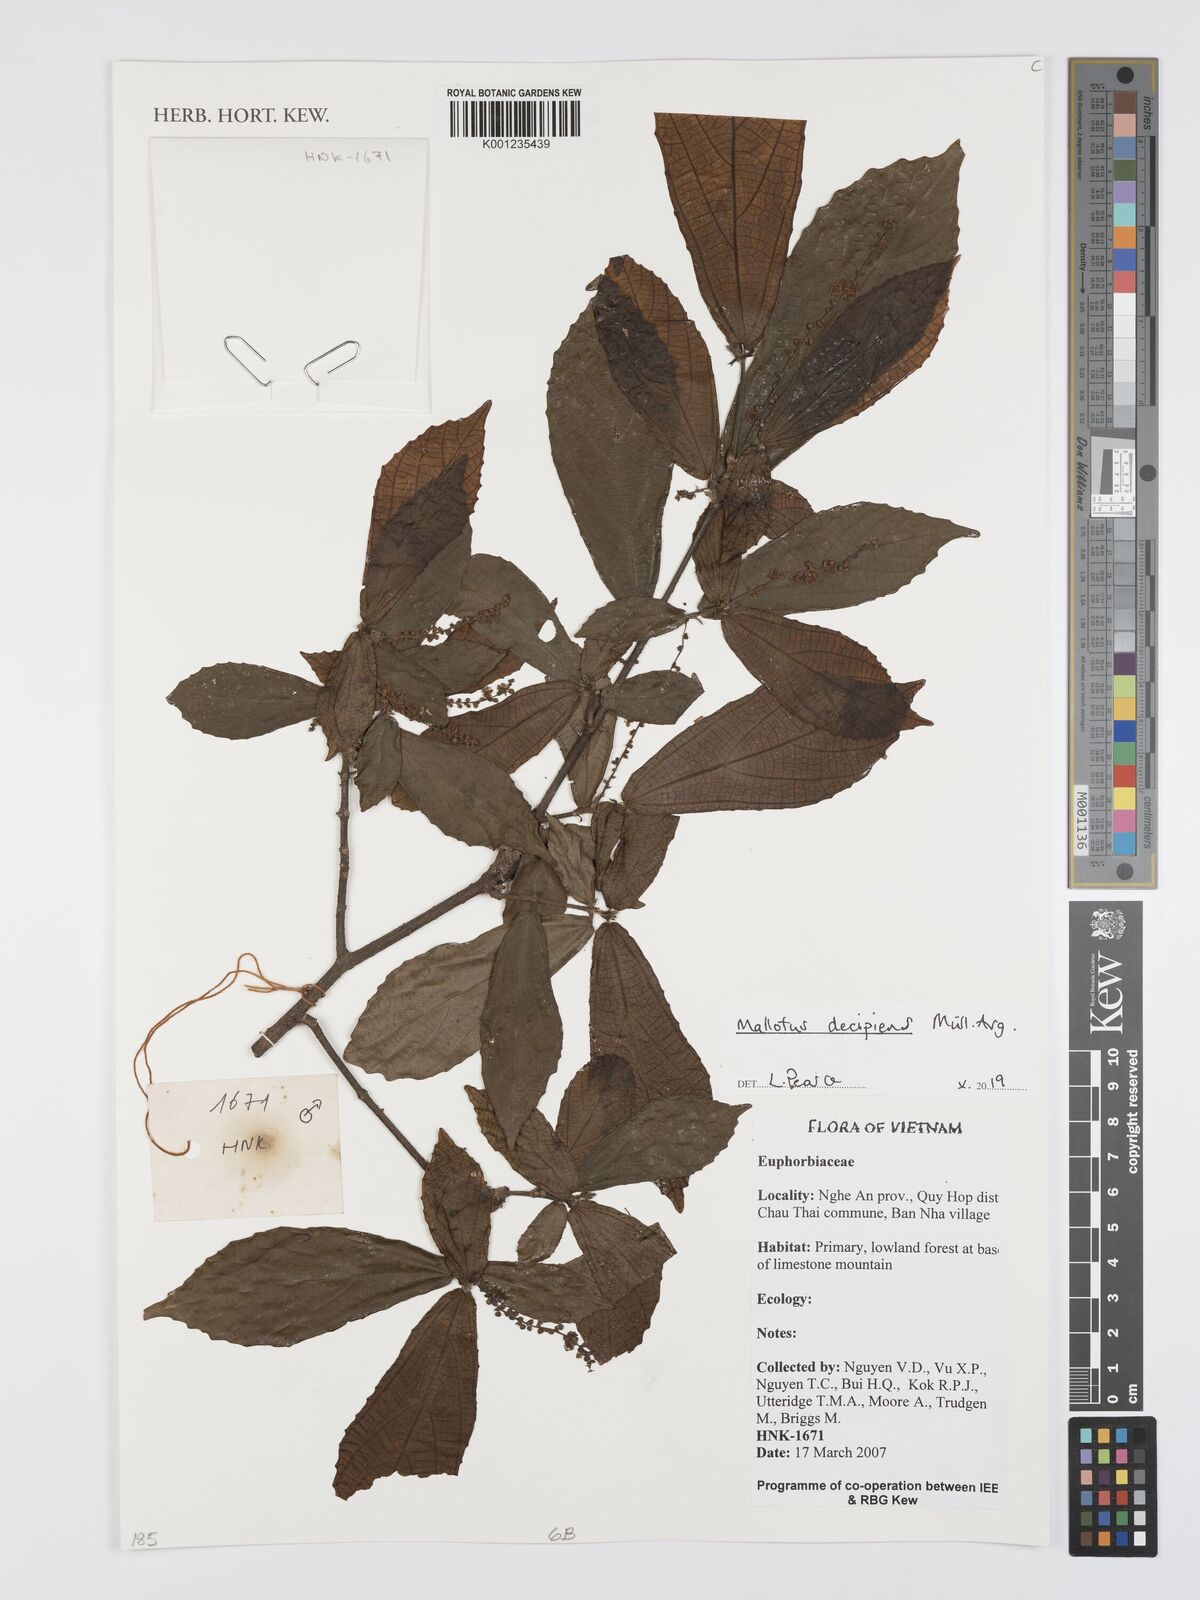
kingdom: Plantae
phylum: Tracheophyta
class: Magnoliopsida
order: Malpighiales
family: Euphorbiaceae
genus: Mallotus
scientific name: Mallotus
